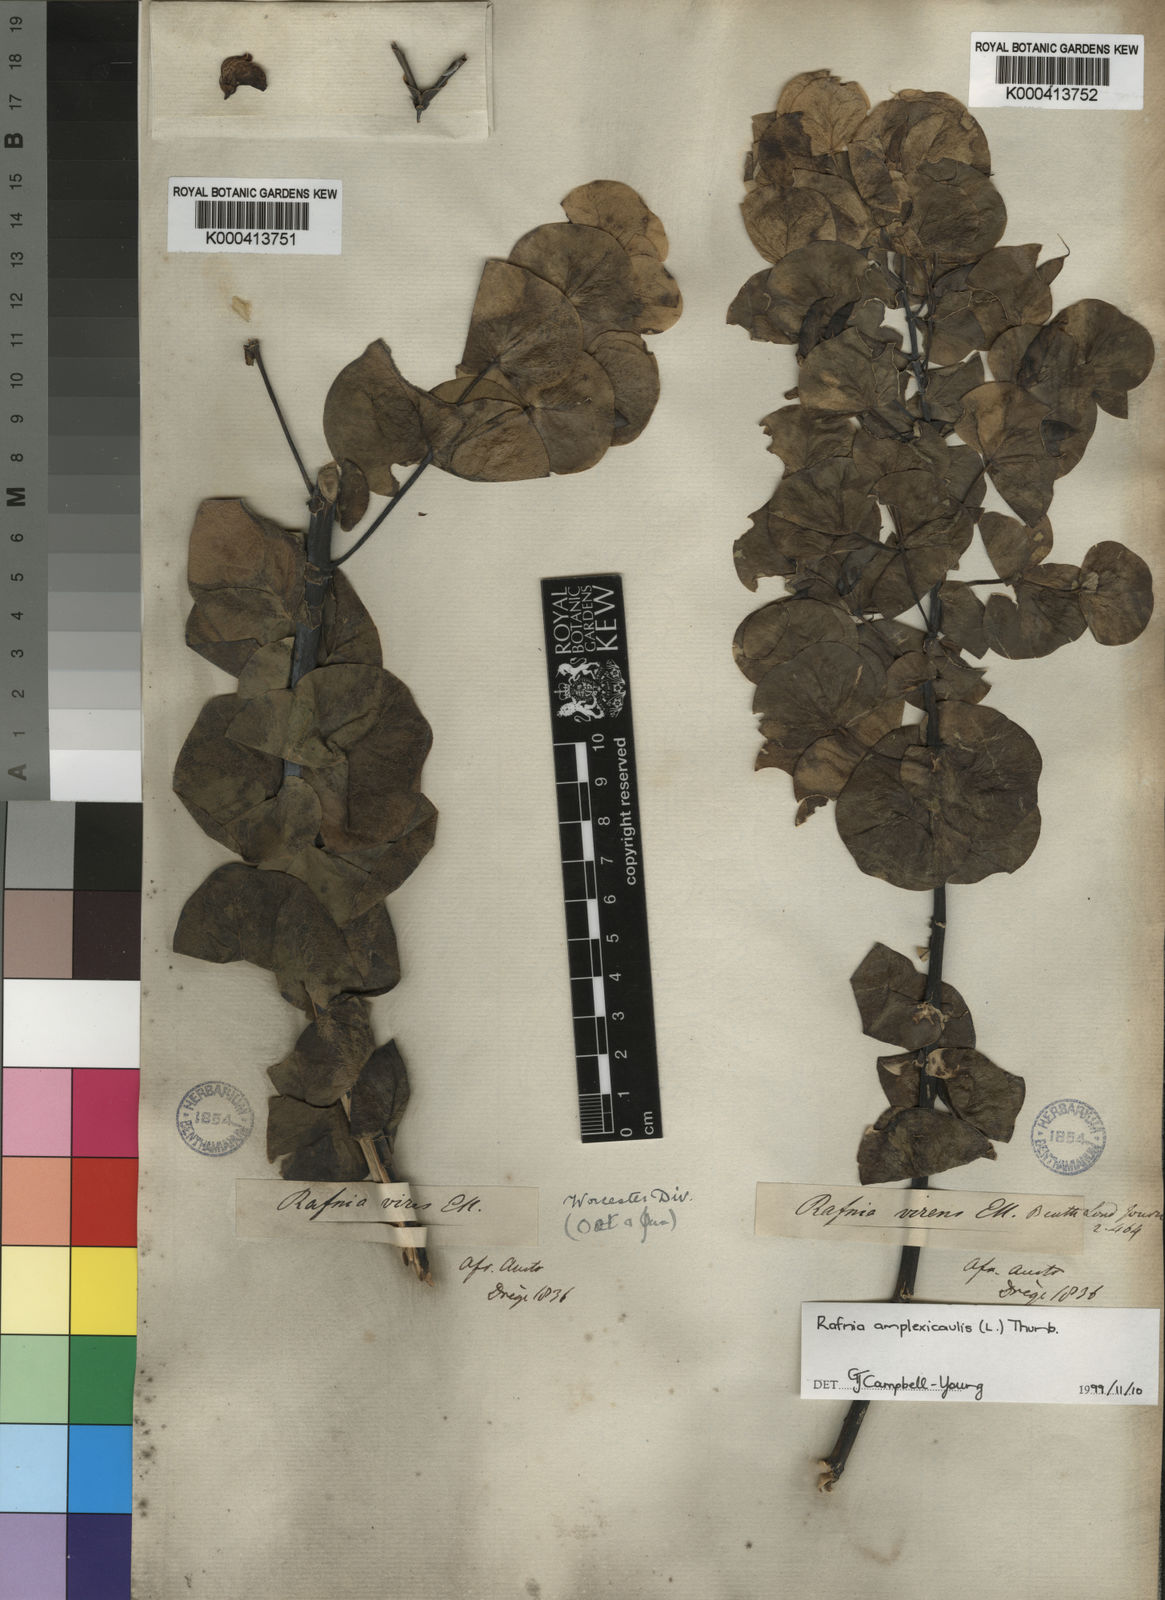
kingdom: Plantae
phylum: Tracheophyta
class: Magnoliopsida
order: Fabales
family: Fabaceae
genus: Rafnia
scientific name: Rafnia amplexicaulis
